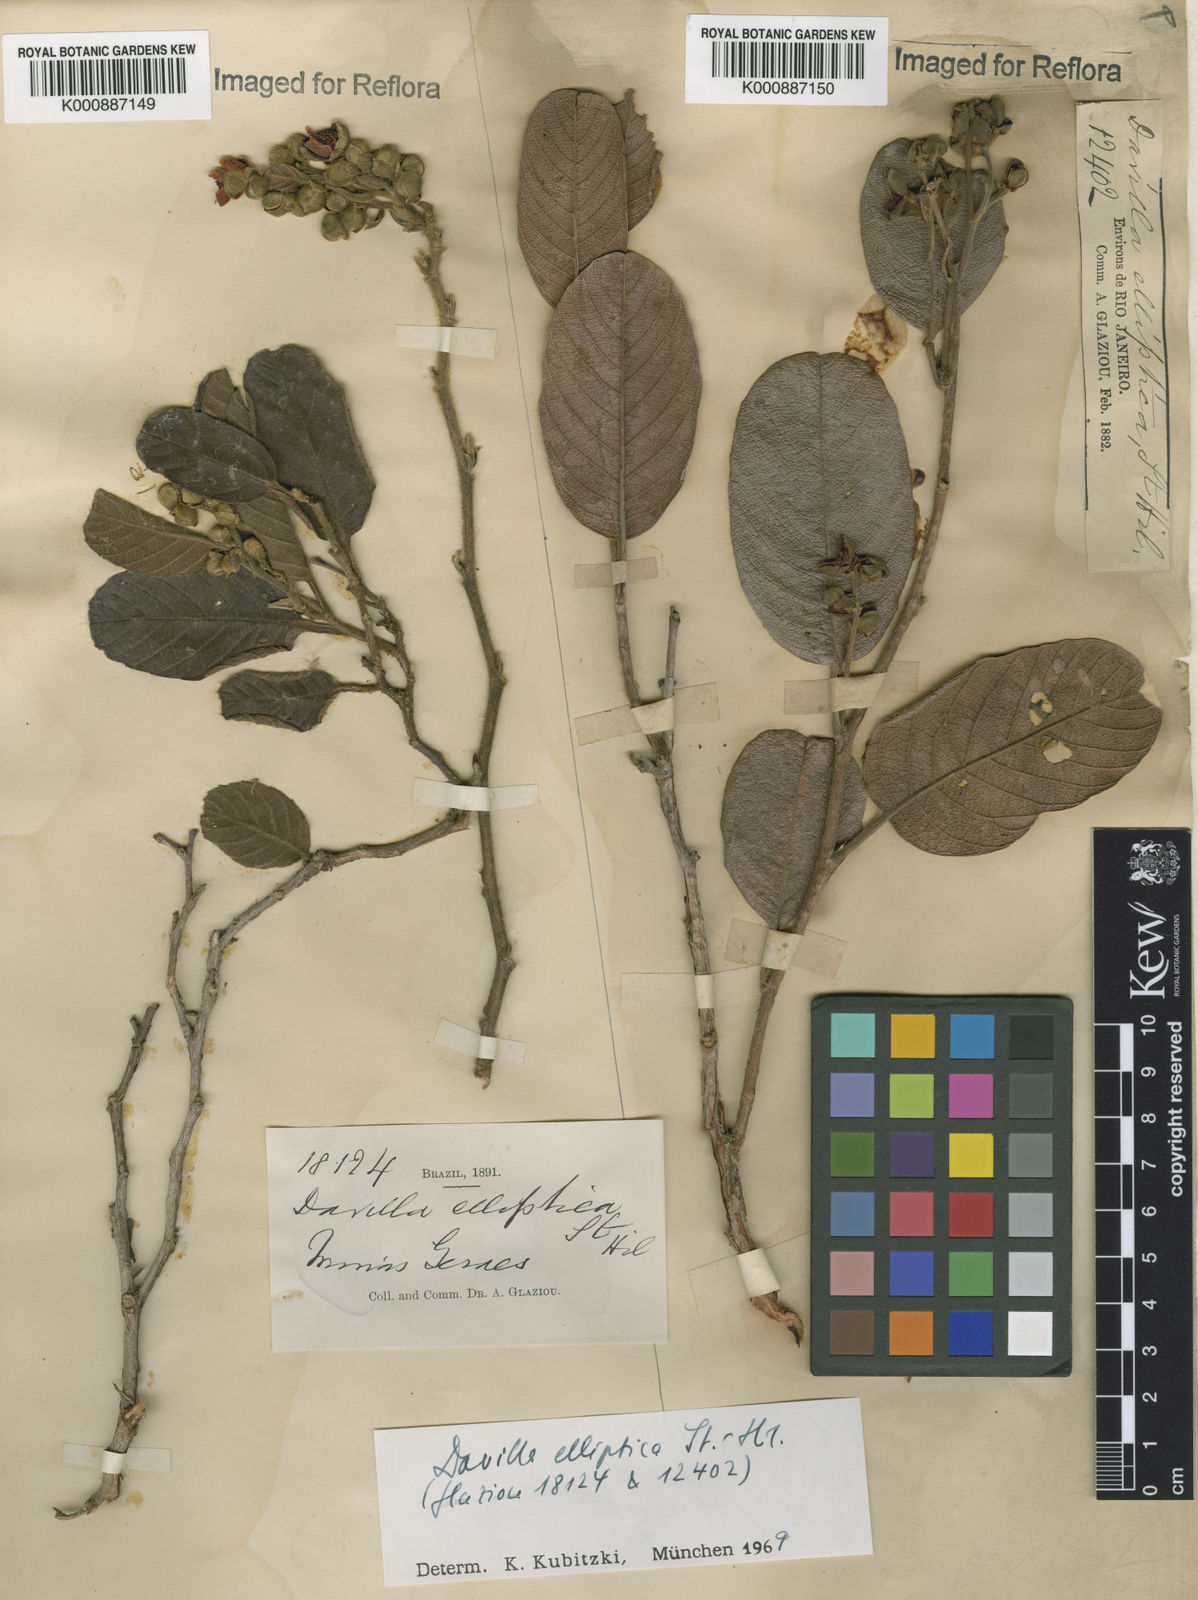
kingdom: Plantae
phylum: Tracheophyta
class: Magnoliopsida
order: Dilleniales
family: Dilleniaceae
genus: Davilla
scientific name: Davilla elliptica
